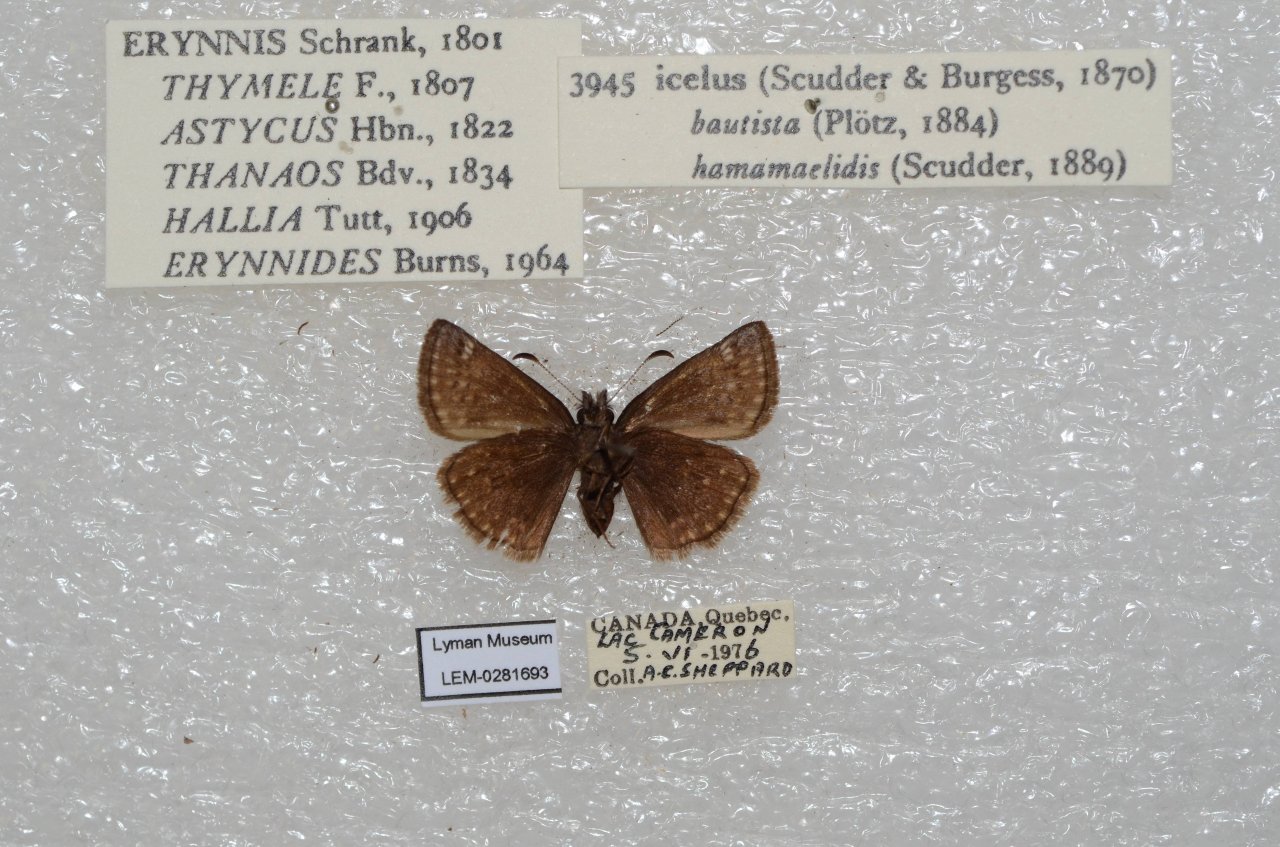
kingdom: Animalia
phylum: Arthropoda
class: Insecta
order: Lepidoptera
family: Hesperiidae
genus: Erynnis
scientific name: Erynnis icelus
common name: Dreamy Duskywing
